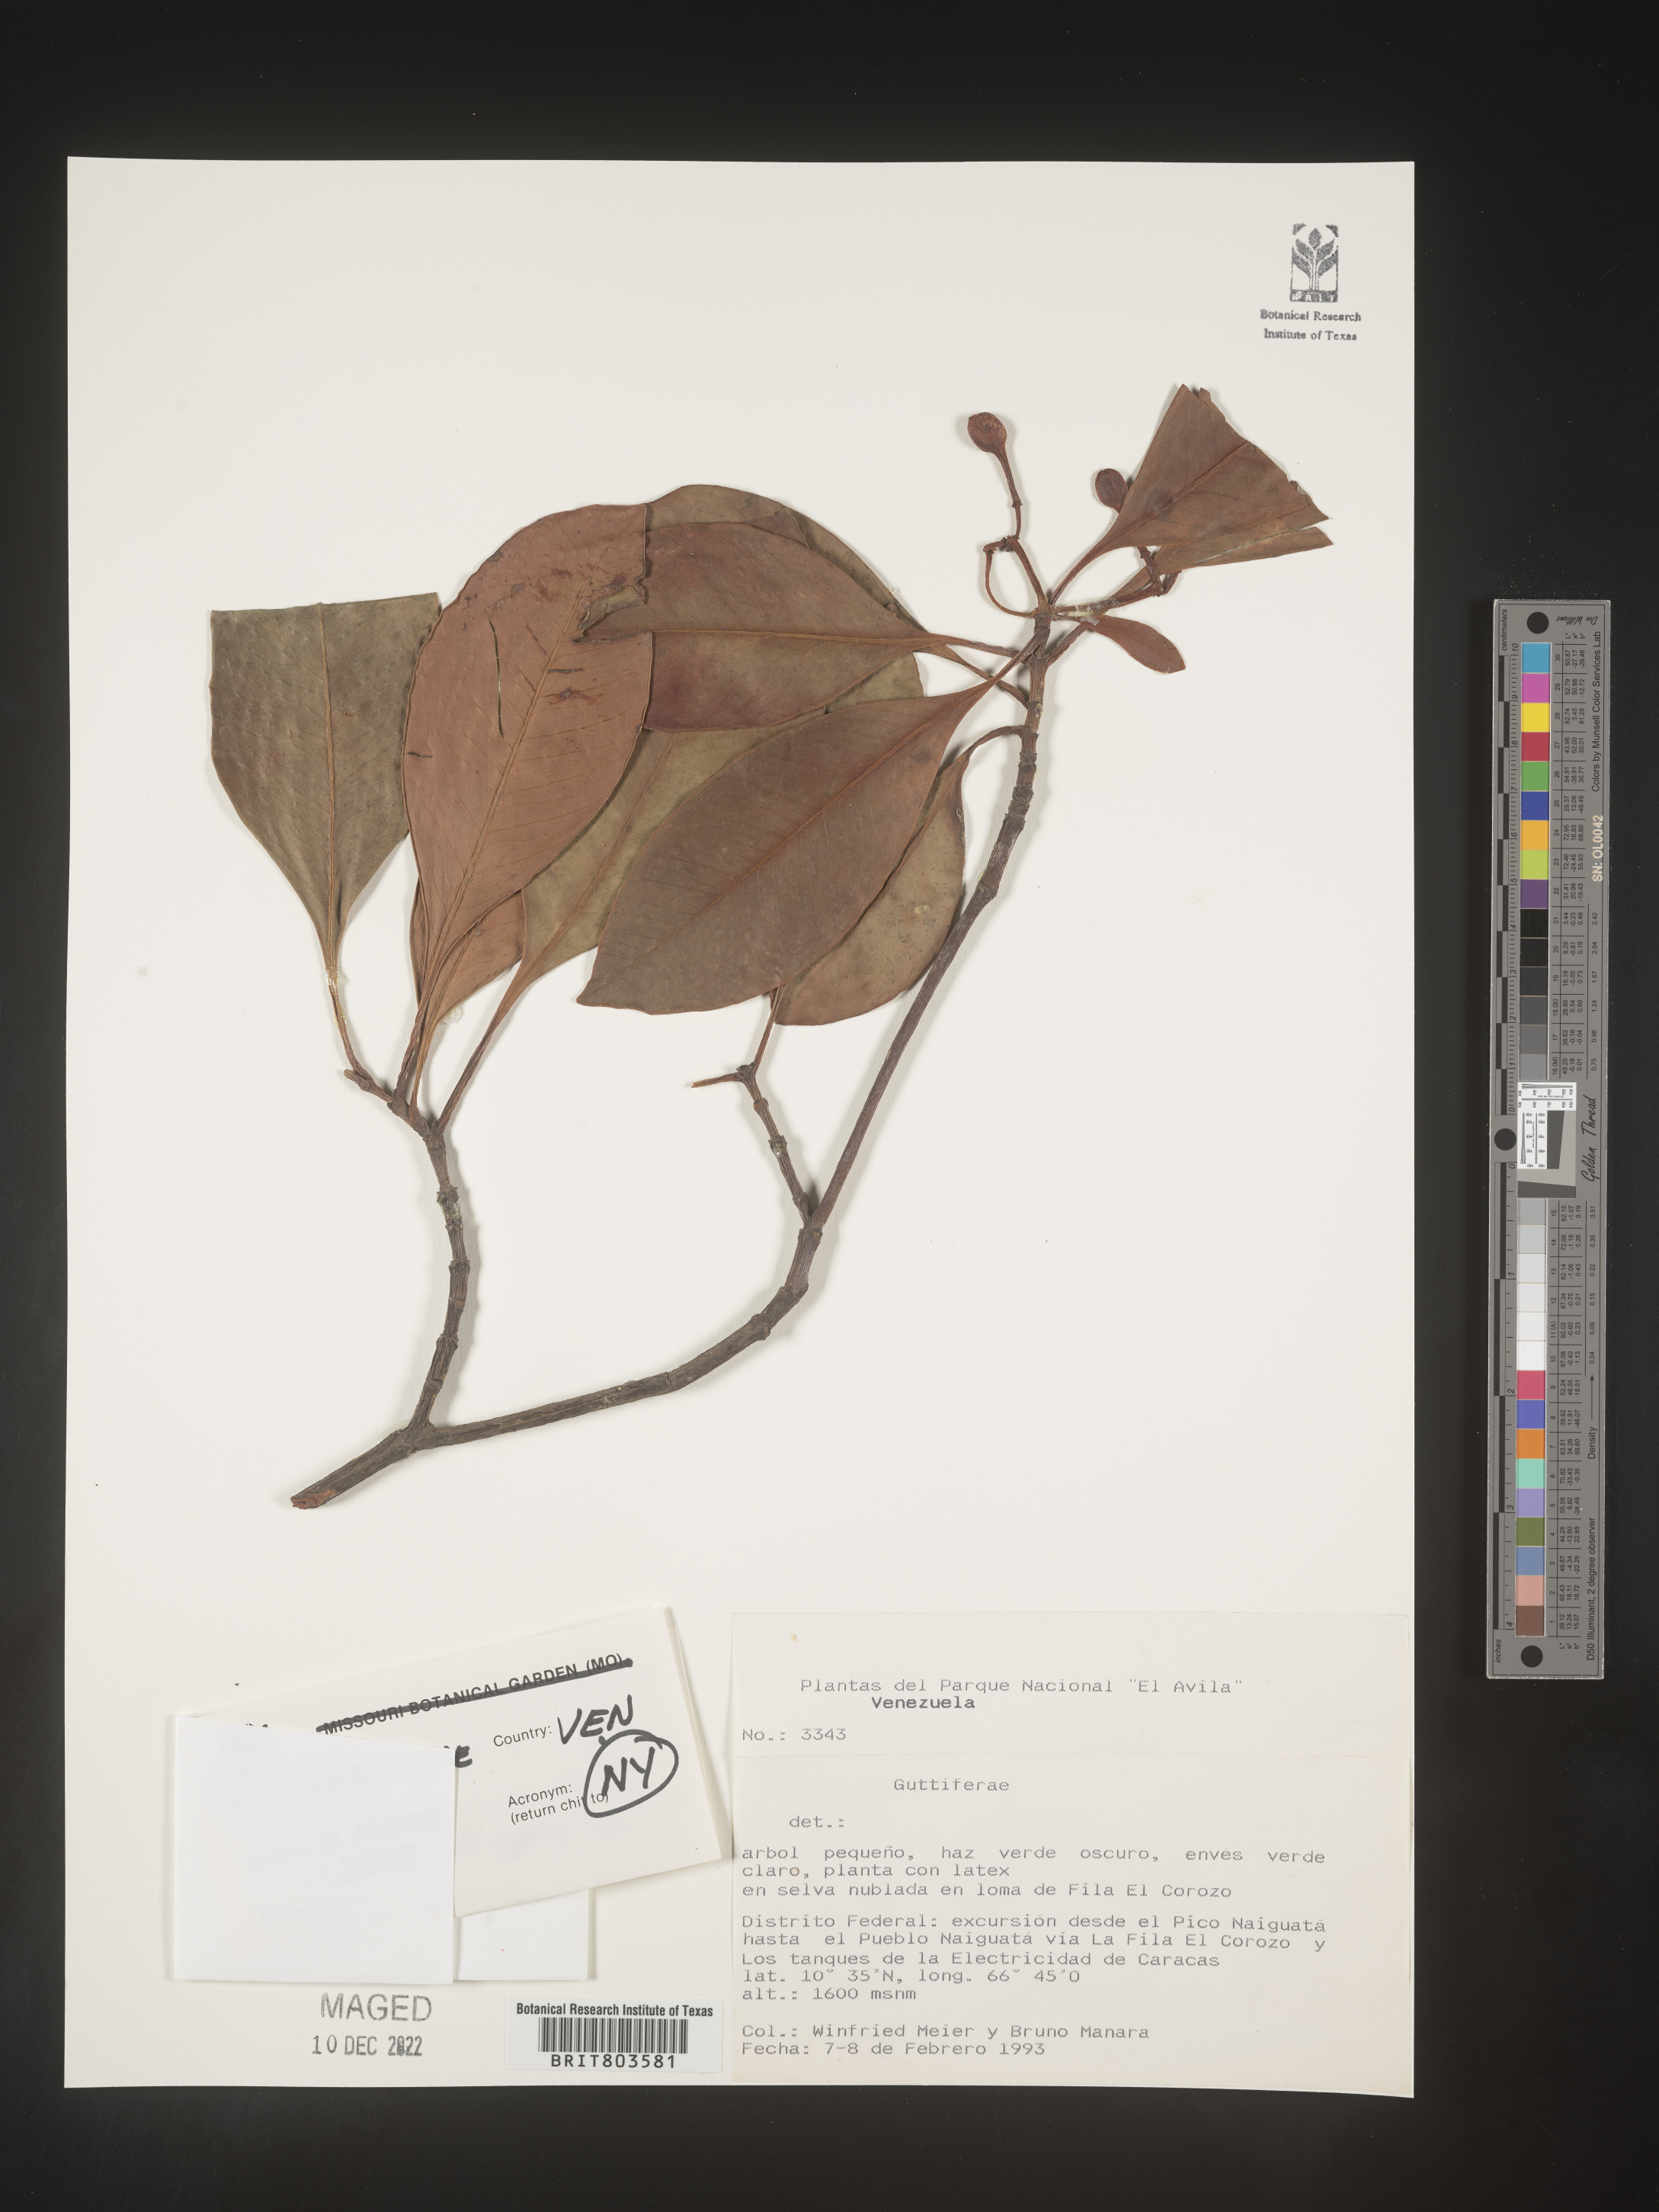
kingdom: Plantae
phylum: Tracheophyta
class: Magnoliopsida
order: Malpighiales
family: Clusiaceae
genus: Tovomita
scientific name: Tovomita
